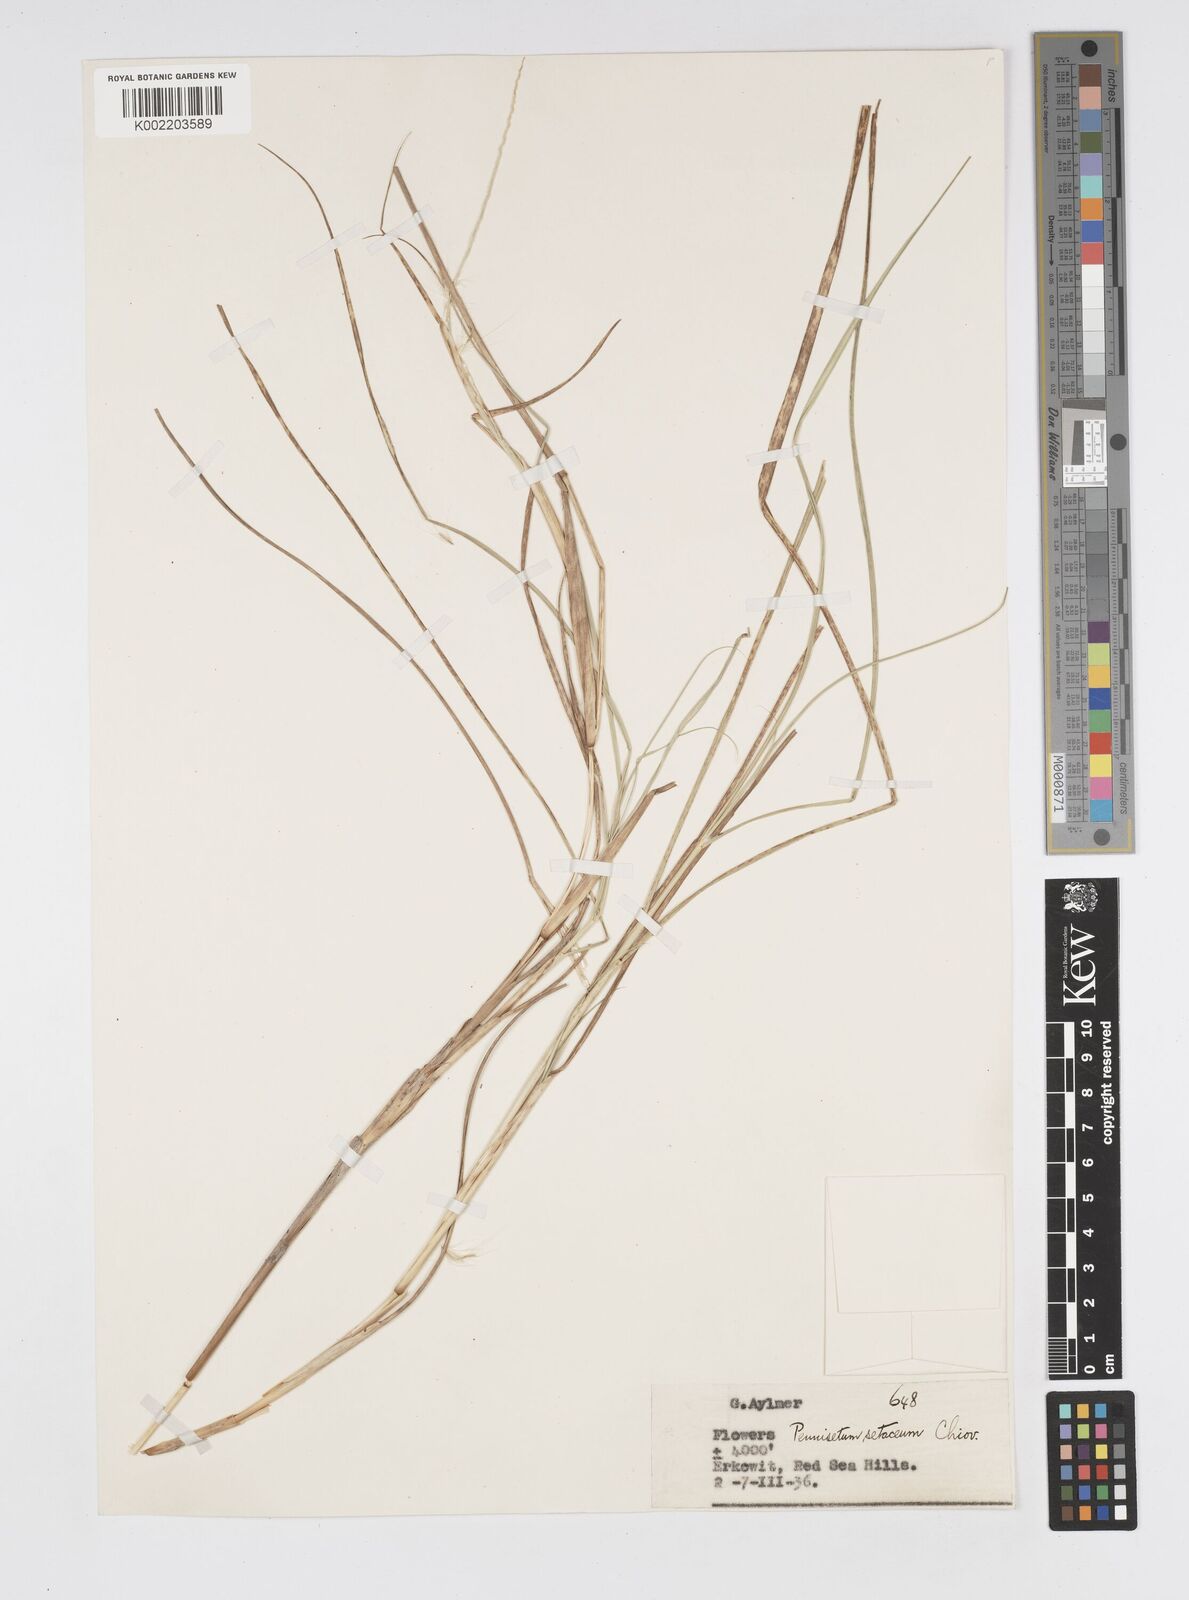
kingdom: Plantae
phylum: Tracheophyta
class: Liliopsida
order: Poales
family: Poaceae
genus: Cenchrus
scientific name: Cenchrus setaceus
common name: Crimson fountaingrass
